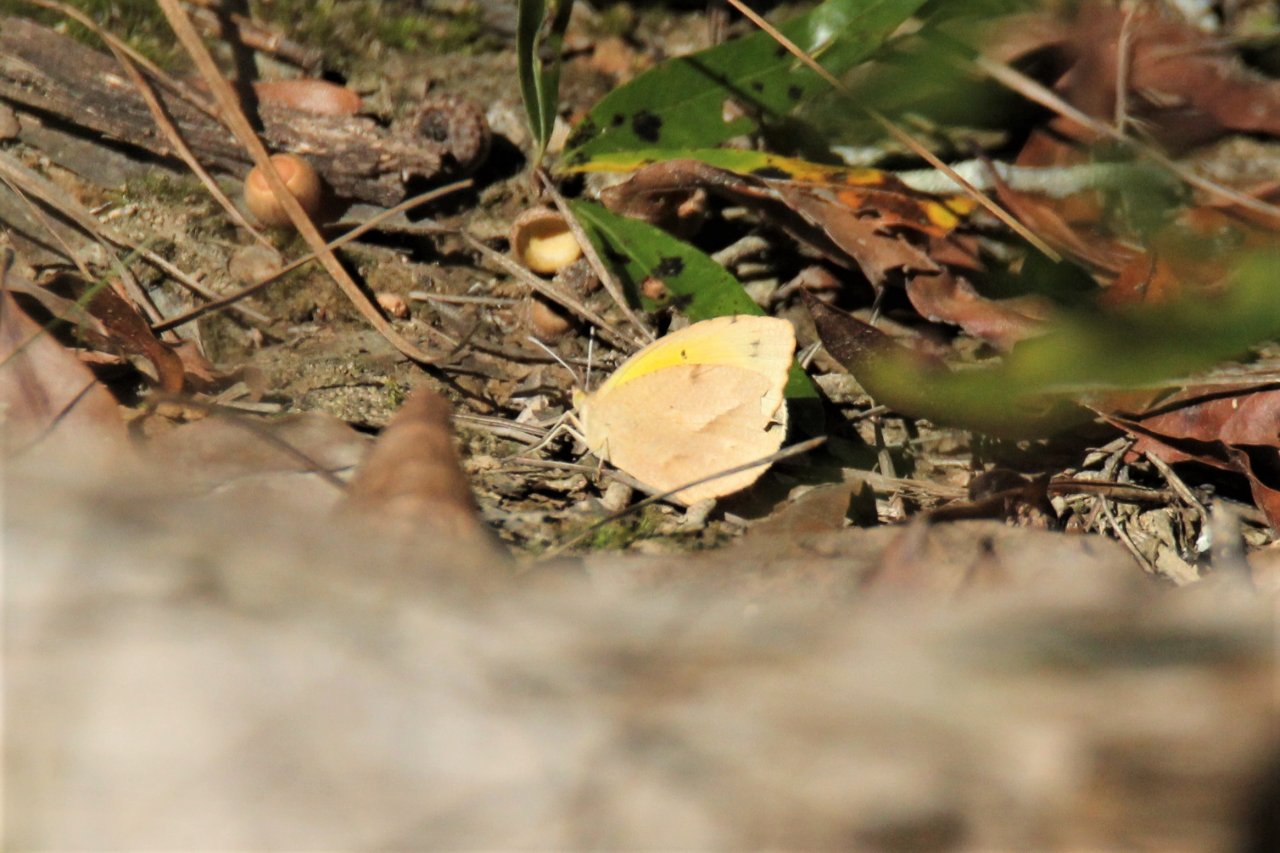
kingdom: Animalia
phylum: Arthropoda
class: Insecta
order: Lepidoptera
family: Pieridae
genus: Abaeis
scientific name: Abaeis nicippe
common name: Sleepy Orange
